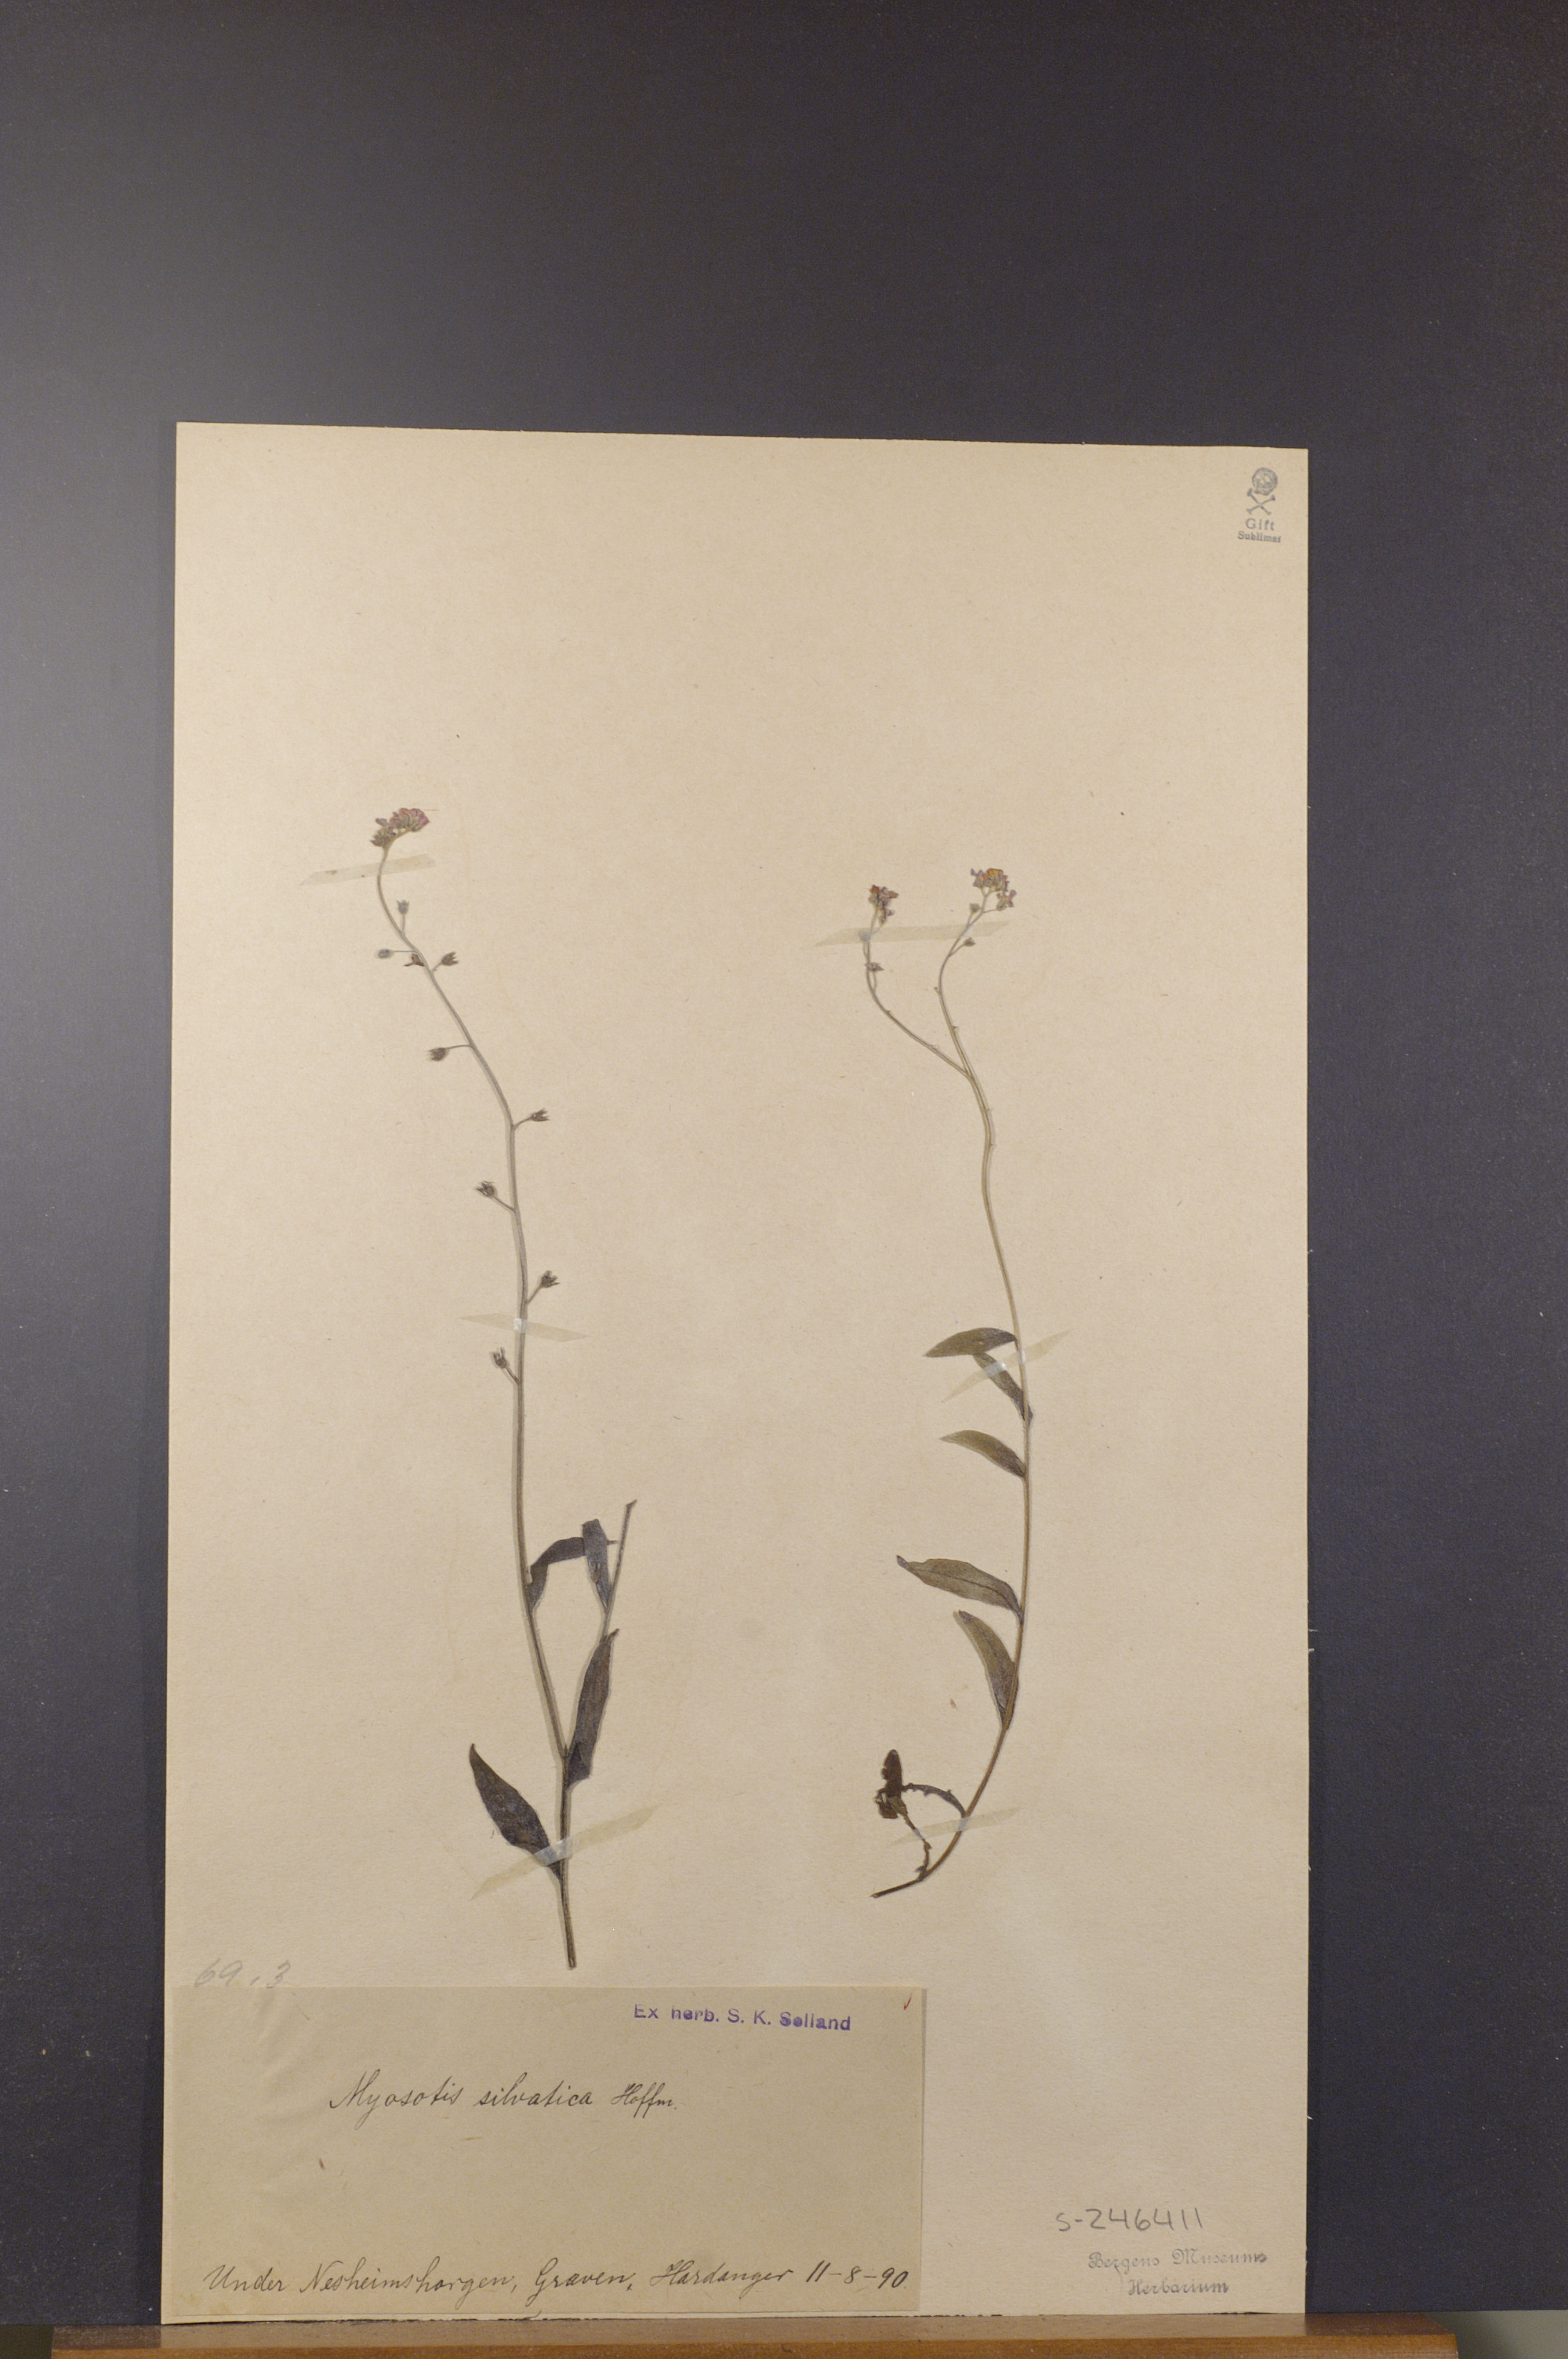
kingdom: Plantae
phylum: Tracheophyta
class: Magnoliopsida
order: Boraginales
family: Boraginaceae
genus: Myosotis
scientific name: Myosotis decumbens
